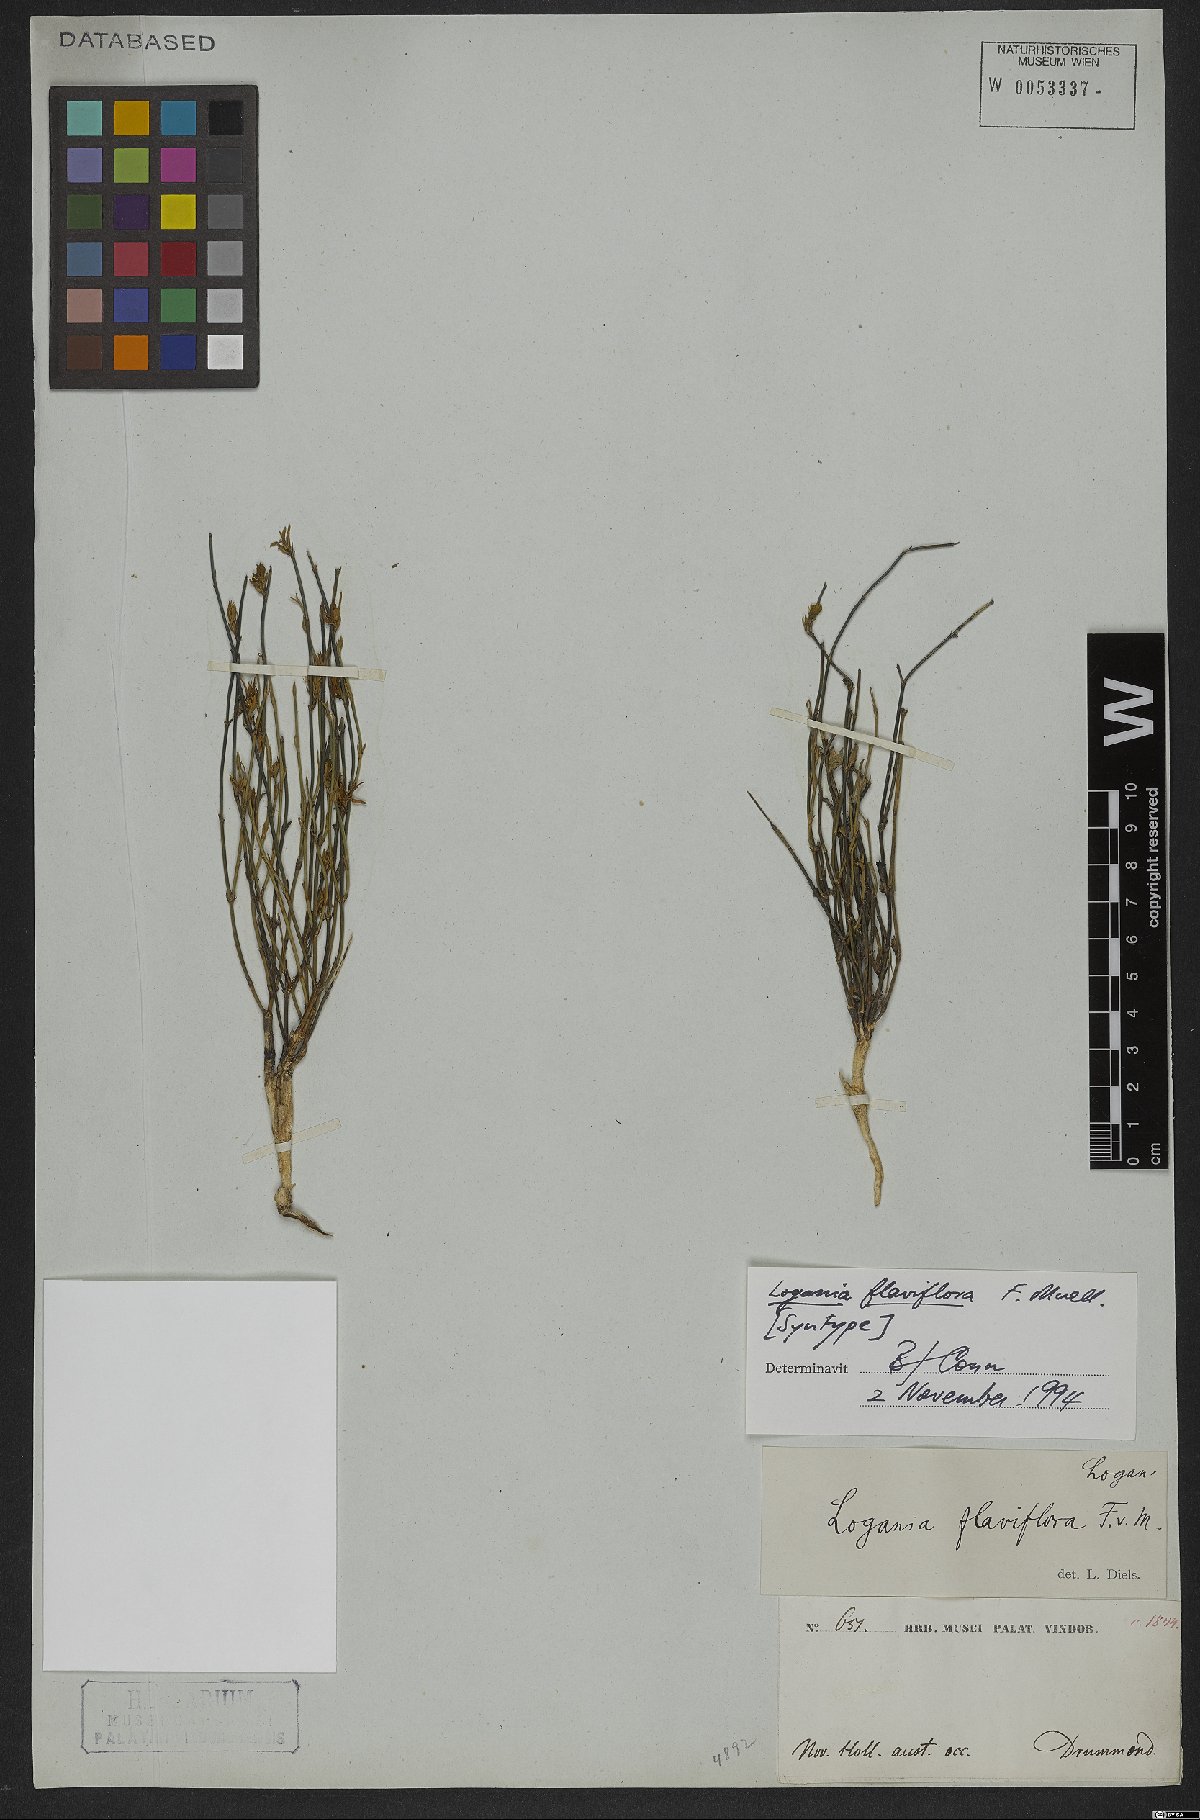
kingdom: Plantae
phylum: Tracheophyta
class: Magnoliopsida
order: Gentianales
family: Loganiaceae
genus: Orianthera
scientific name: Orianthera flaviflora
